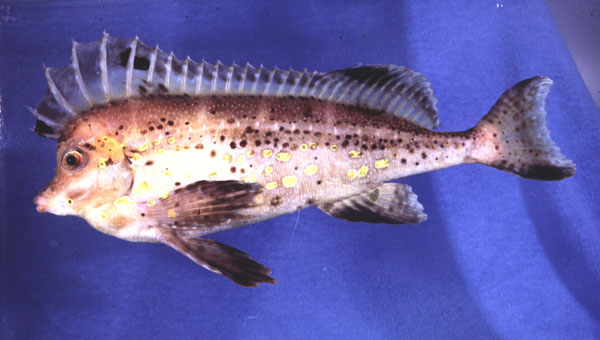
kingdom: Animalia
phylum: Chordata
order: Scorpaeniformes
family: Congiopodidae
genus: Congiopodus
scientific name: Congiopodus spinifer
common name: Spinenose horsefish
